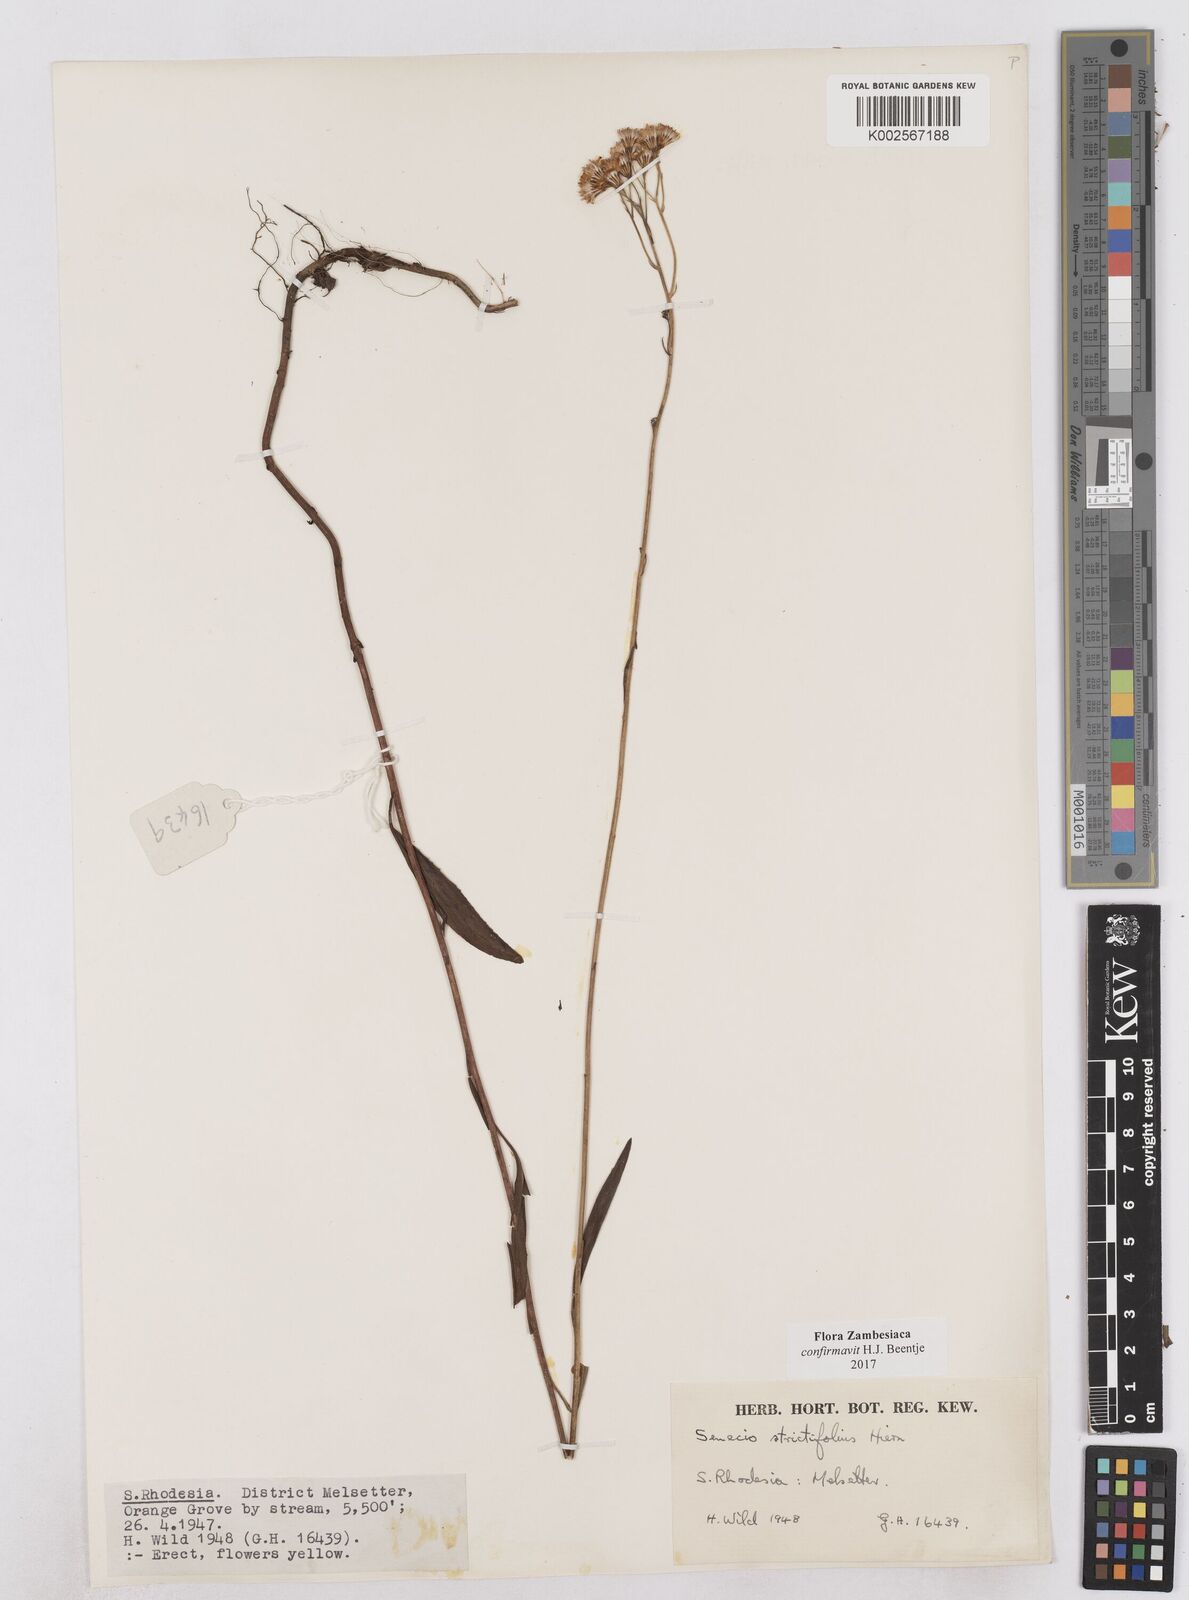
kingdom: Plantae
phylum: Tracheophyta
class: Magnoliopsida
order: Asterales
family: Asteraceae
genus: Senecio
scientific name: Senecio strictifolius
